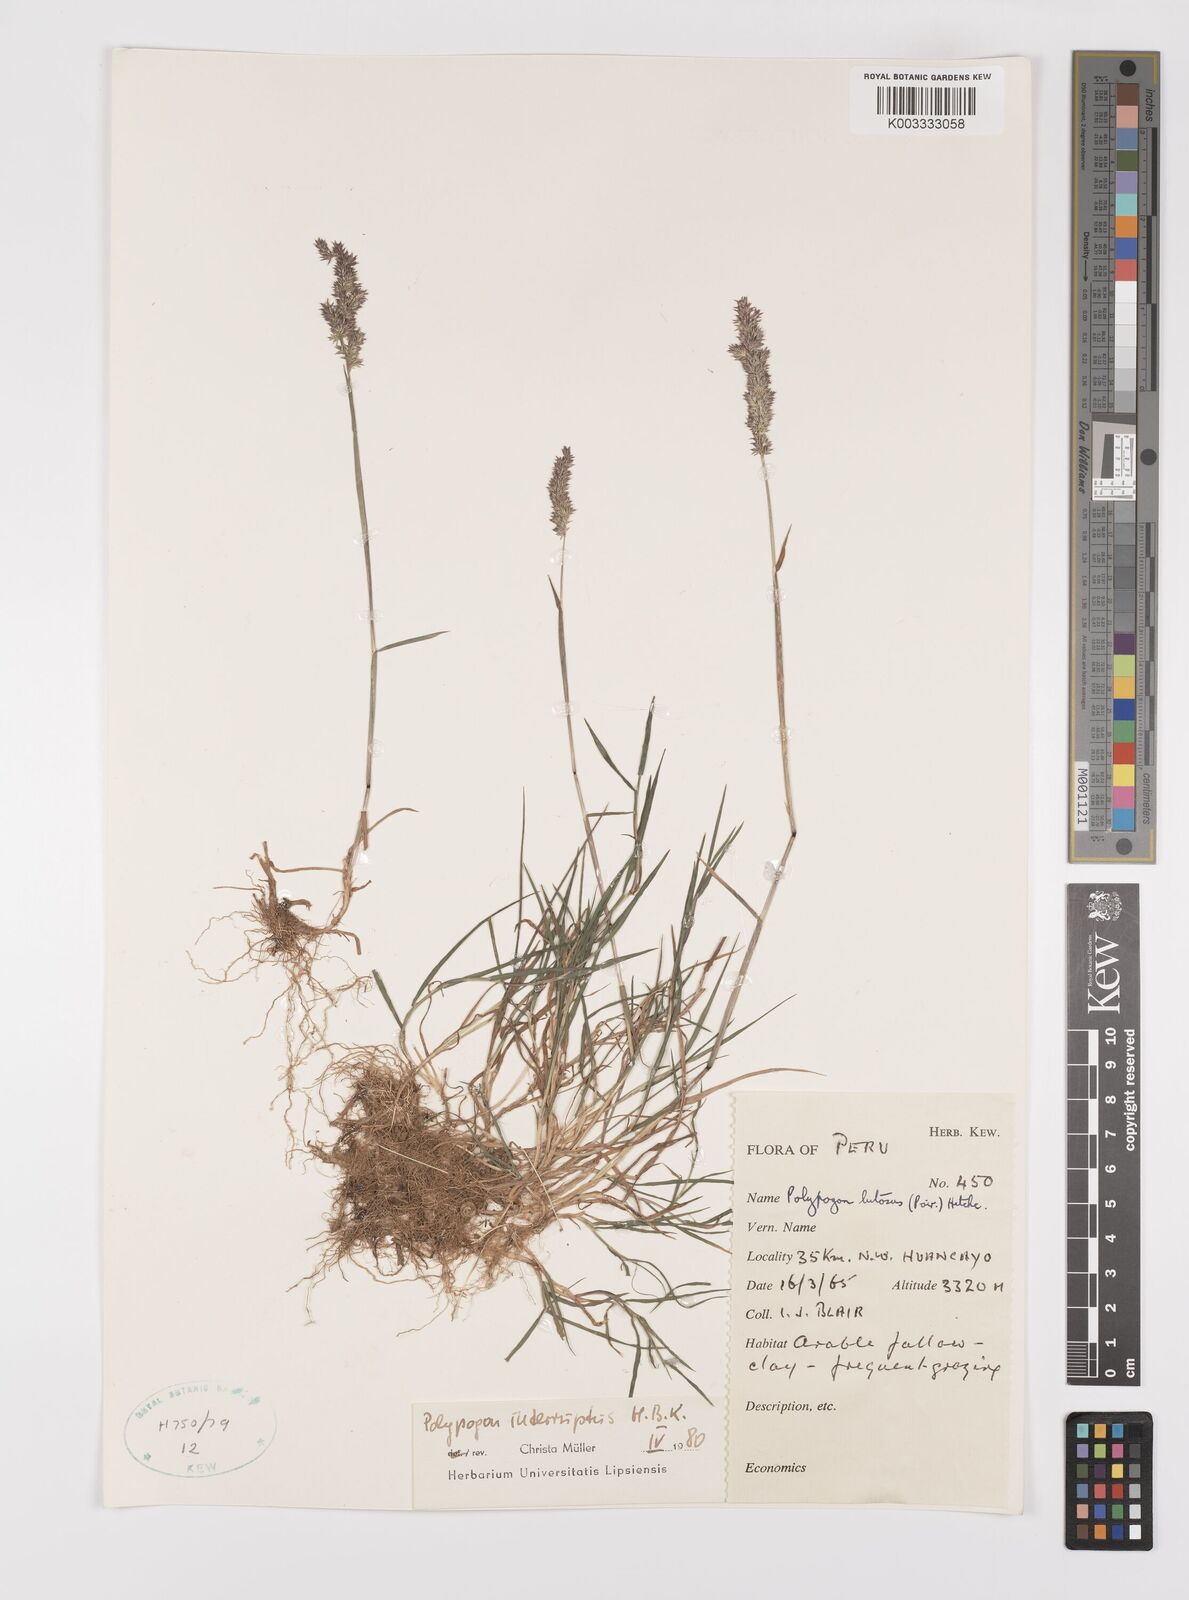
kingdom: Plantae
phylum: Tracheophyta
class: Liliopsida
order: Poales
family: Poaceae
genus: Polypogon
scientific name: Polypogon interruptus
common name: Ditch polypogon
